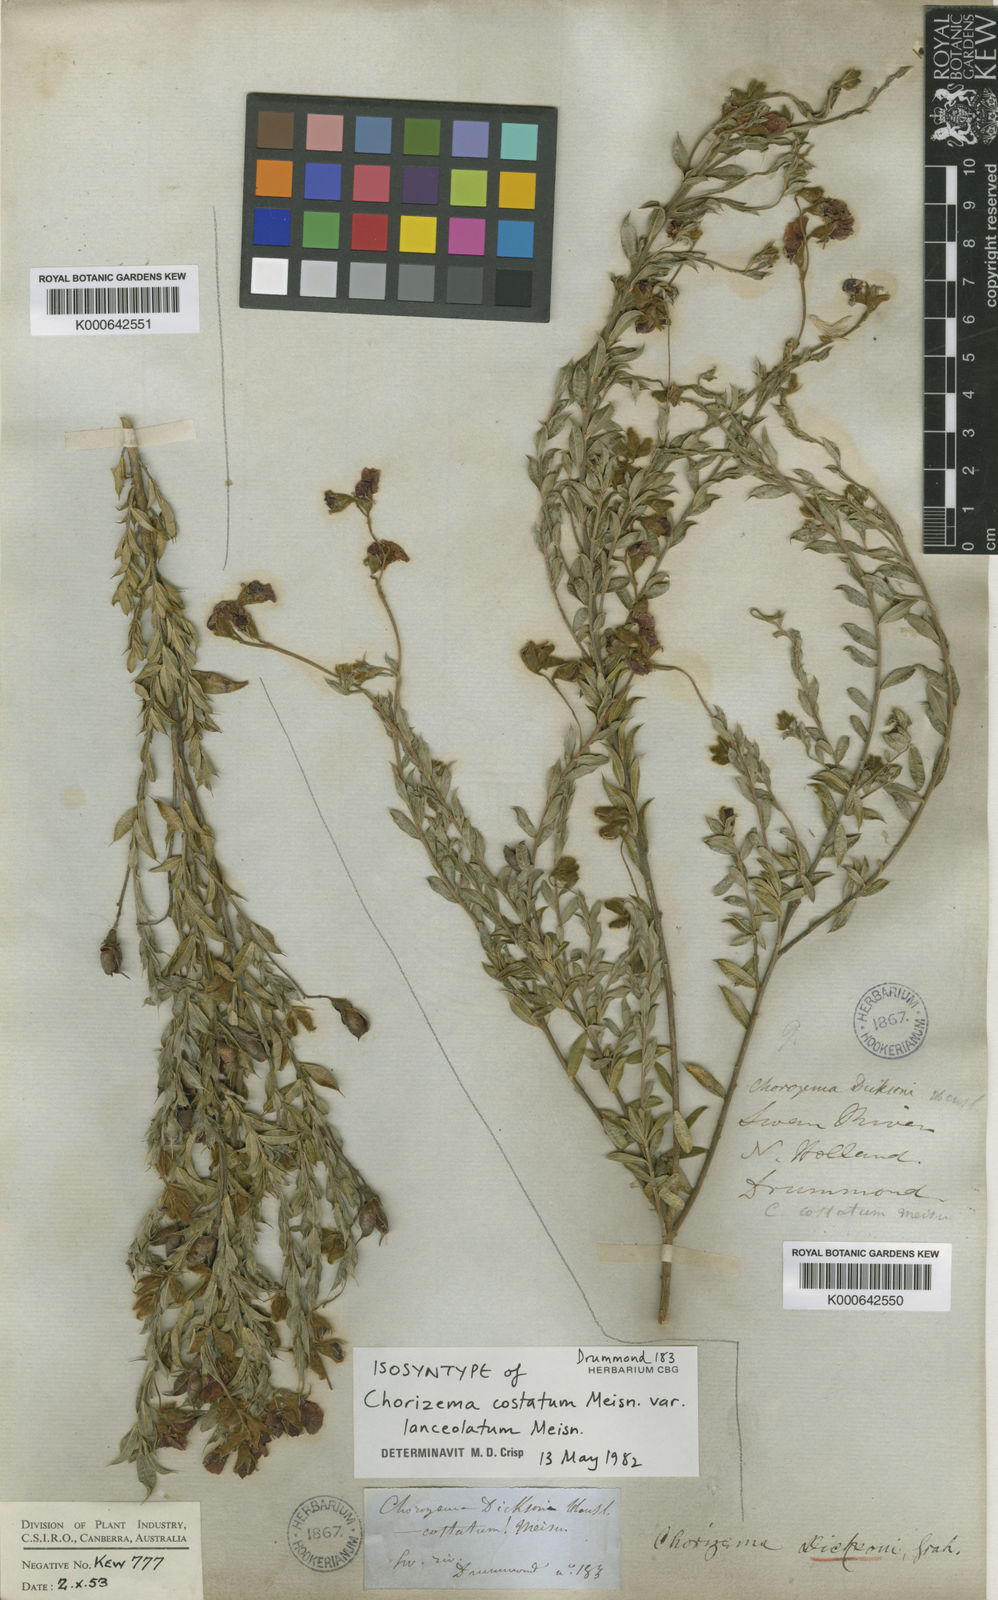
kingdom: Plantae
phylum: Tracheophyta
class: Magnoliopsida
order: Fabales
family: Fabaceae
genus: Chorizema
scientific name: Chorizema dicksonii
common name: Yellow-eyed flame-pea
